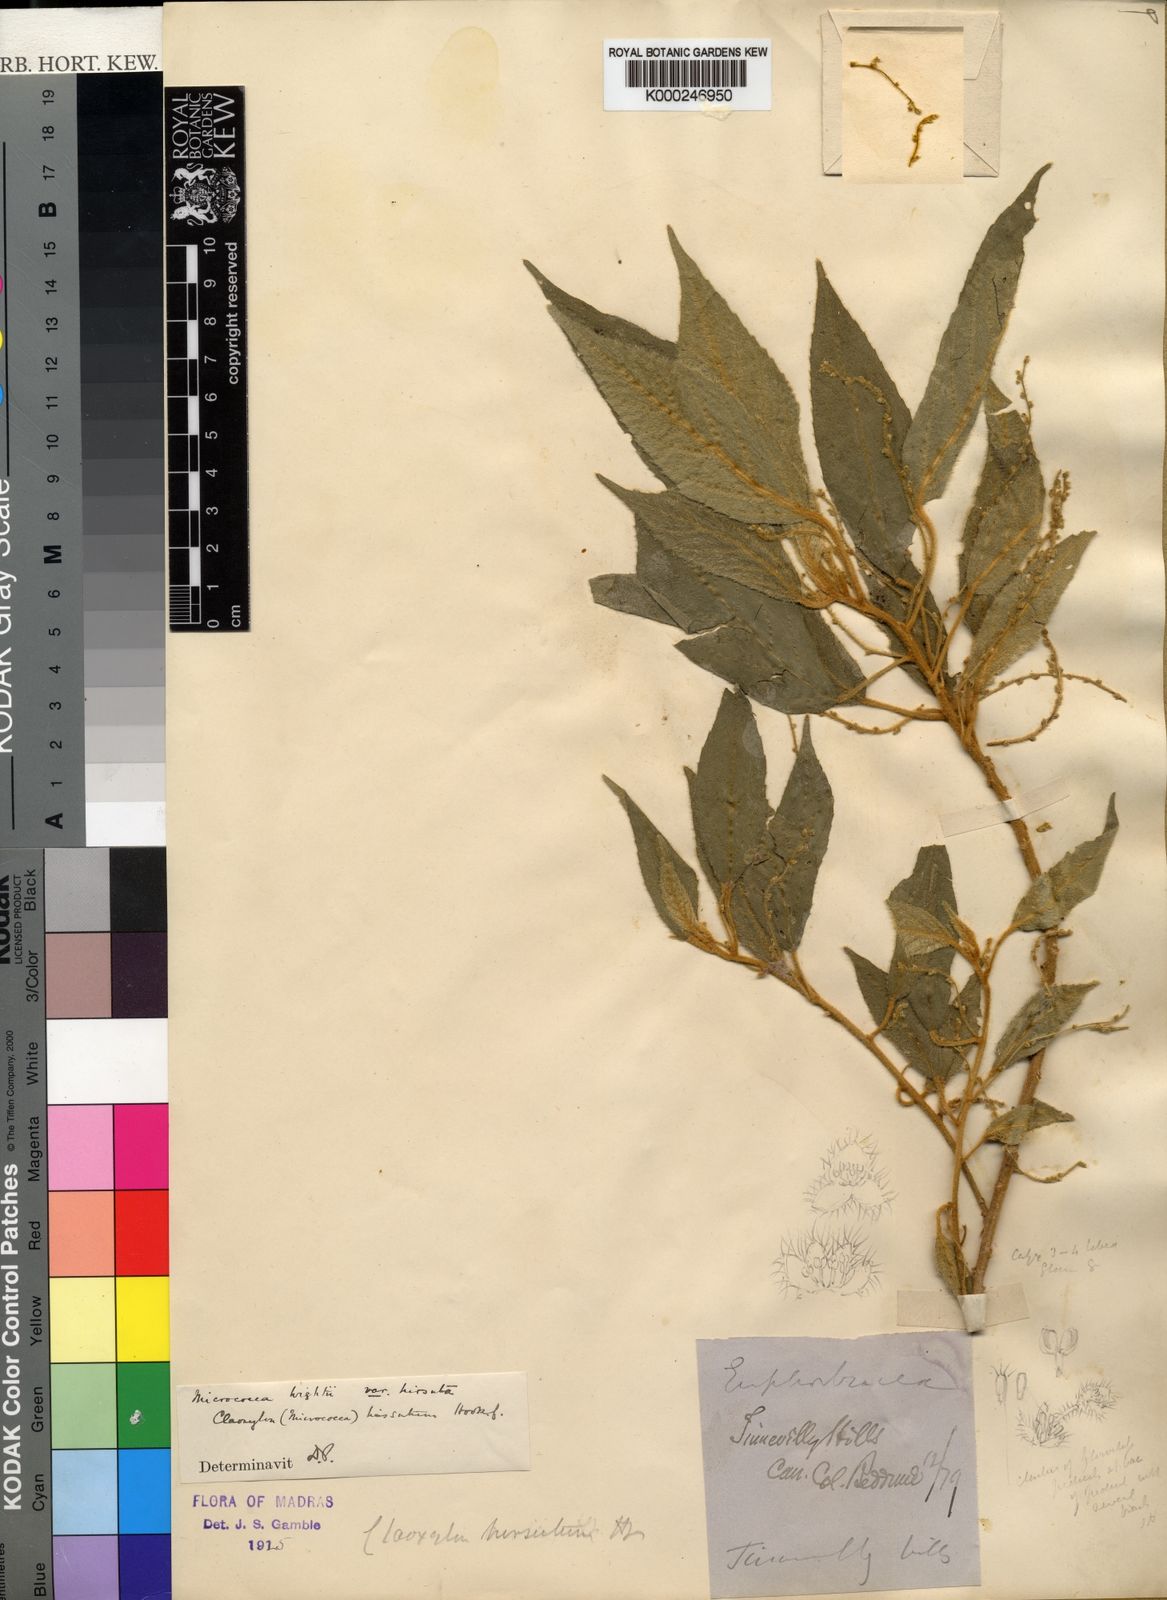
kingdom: Plantae
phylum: Tracheophyta
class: Magnoliopsida
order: Malpighiales
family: Euphorbiaceae
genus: Micrococca
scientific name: Micrococca wightii
